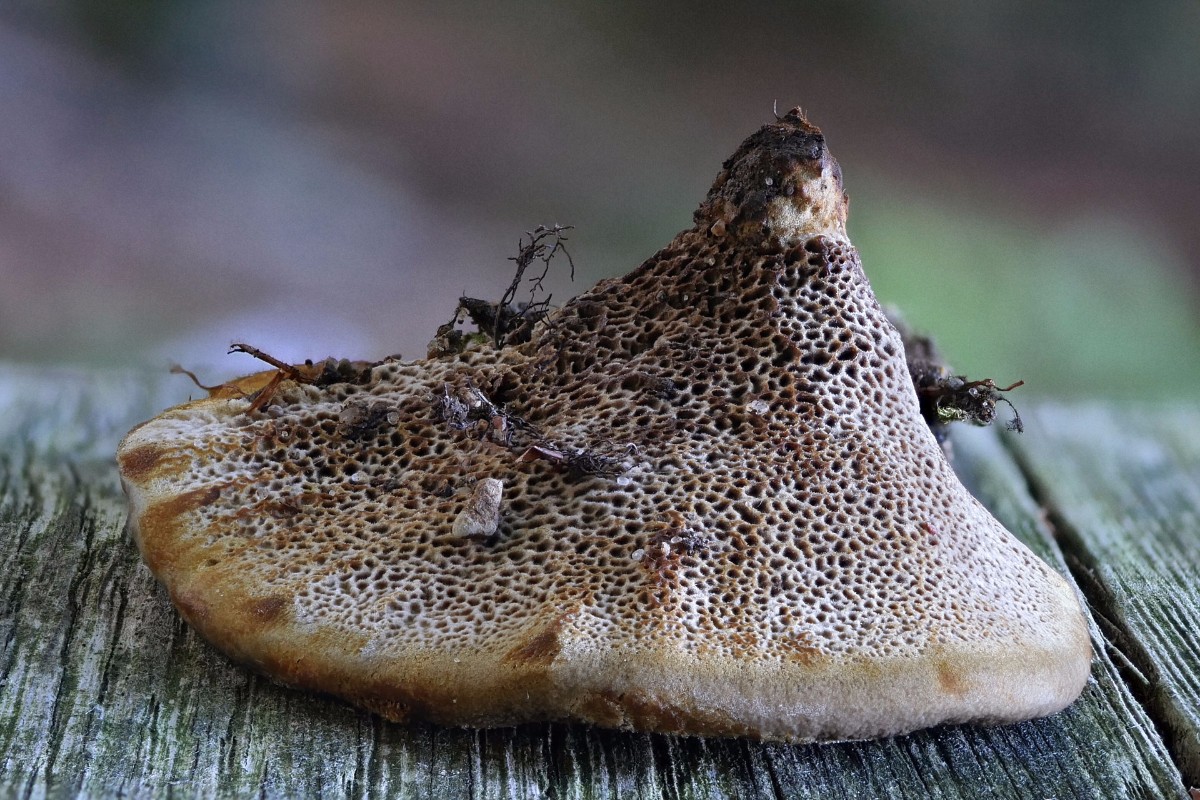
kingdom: Fungi
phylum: Basidiomycota
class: Agaricomycetes
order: Hymenochaetales
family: Hymenochaetaceae
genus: Coltricia
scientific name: Coltricia confluens
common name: park-sandporesvamp
